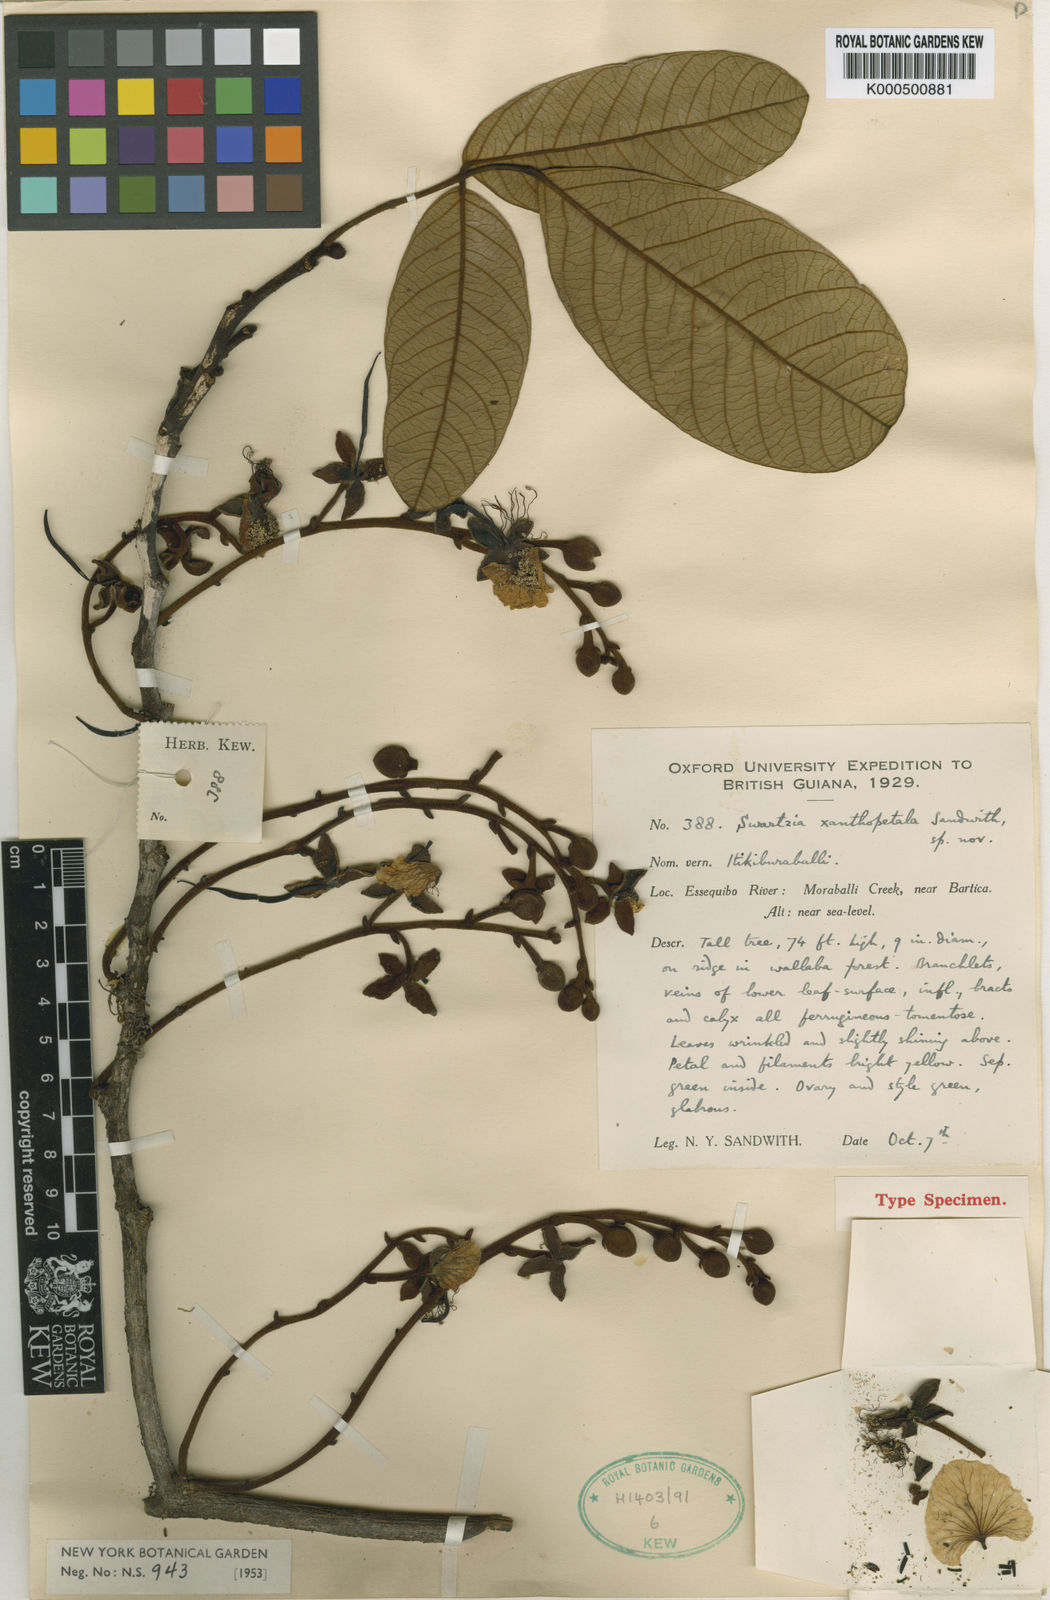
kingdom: Plantae
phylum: Tracheophyta
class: Magnoliopsida
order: Fabales
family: Fabaceae
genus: Swartzia
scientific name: Swartzia xanthopetala
